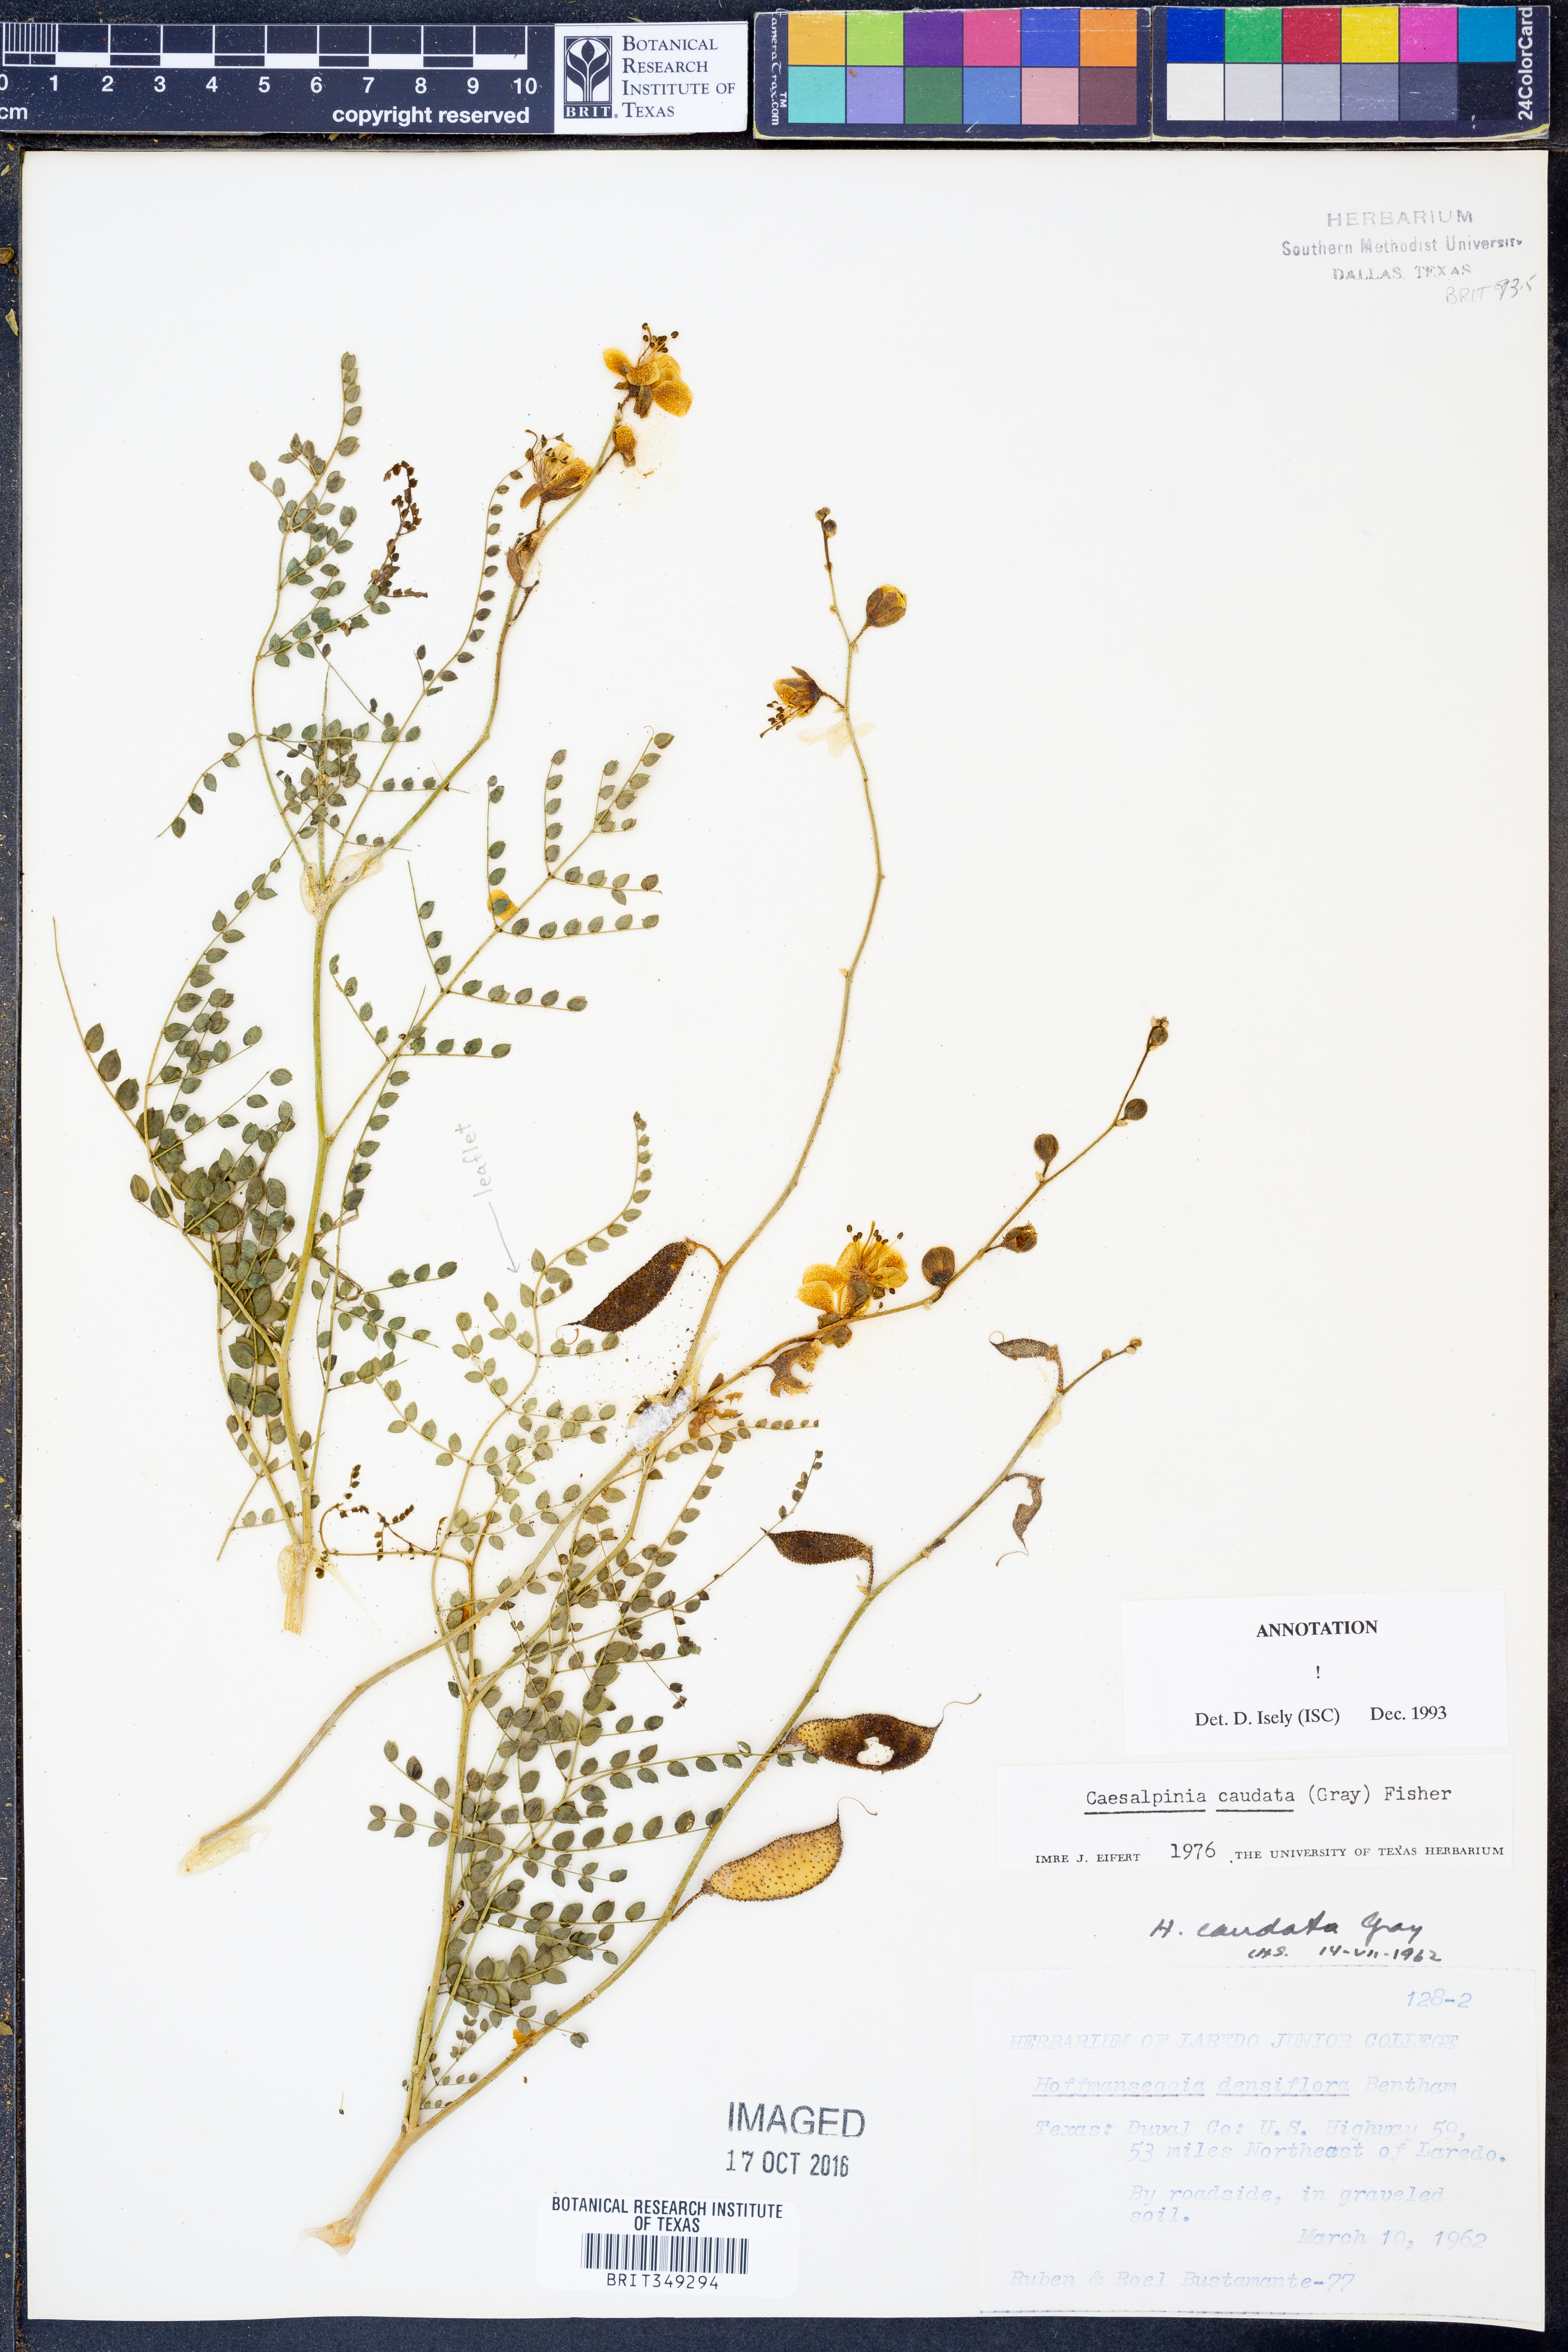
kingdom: Plantae
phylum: Tracheophyta
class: Magnoliopsida
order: Fabales
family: Fabaceae
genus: Erythrostemon
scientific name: Erythrostemon caudatus
